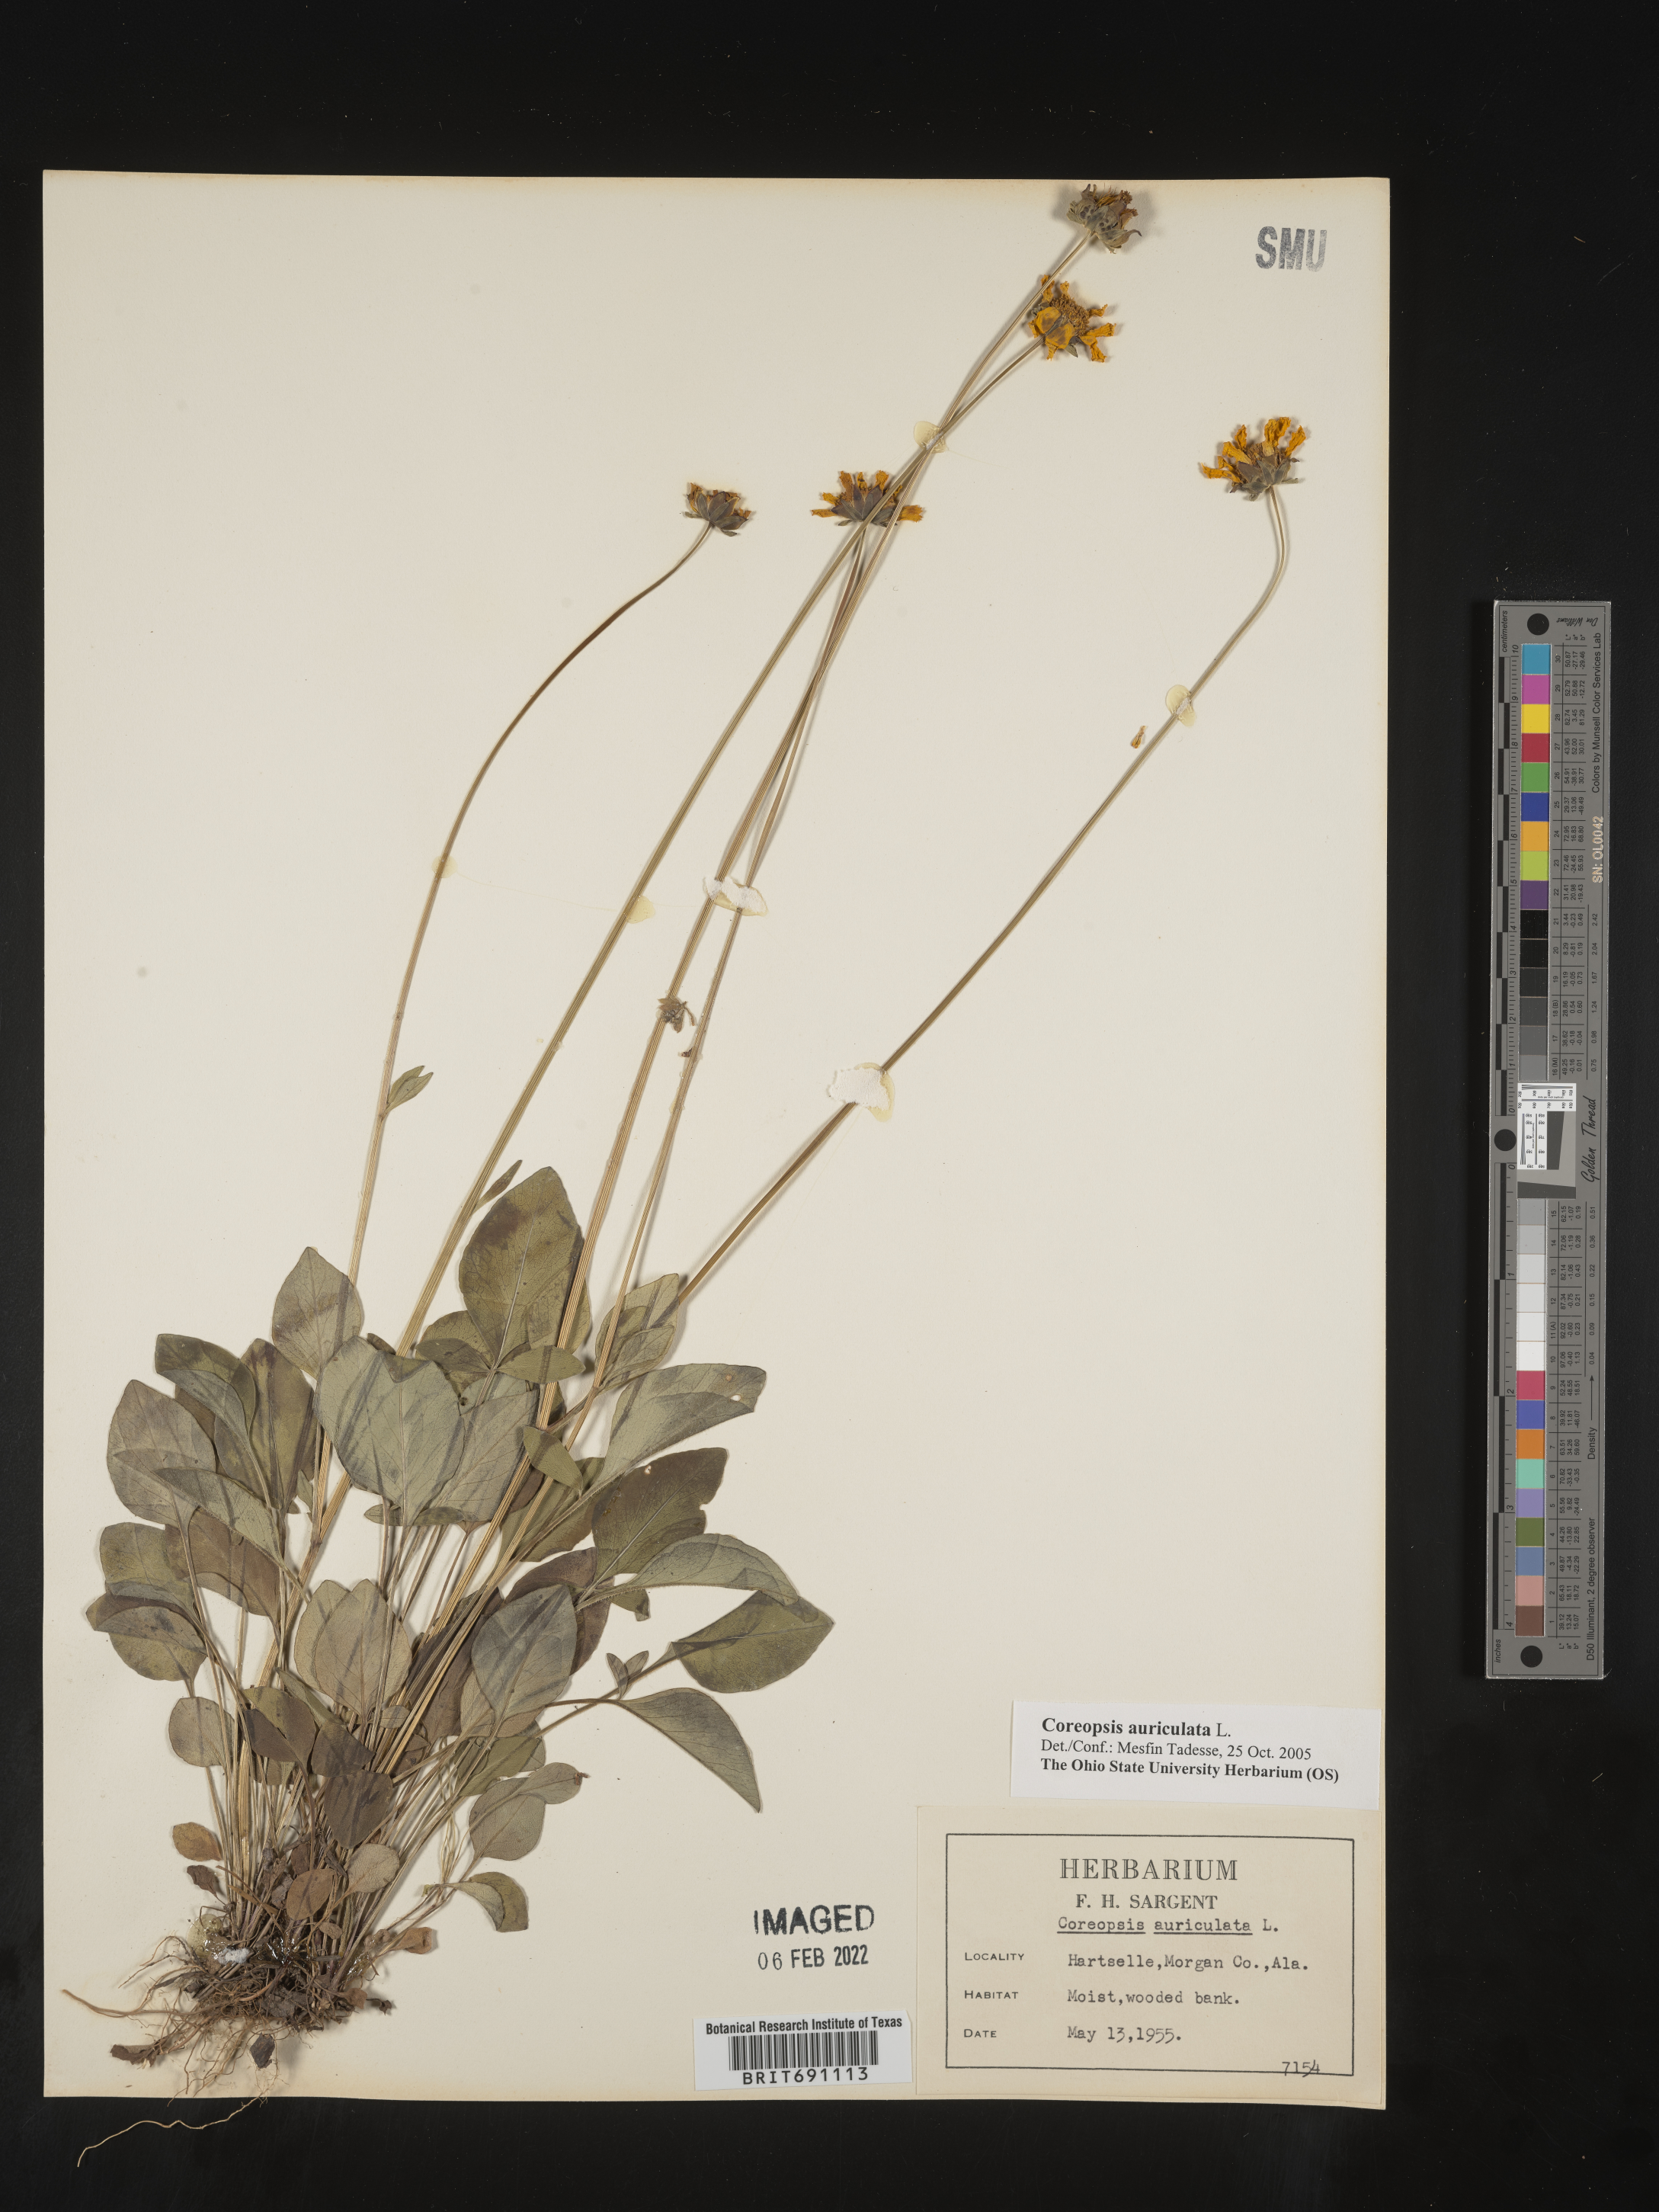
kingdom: Plantae
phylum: Tracheophyta
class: Magnoliopsida
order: Asterales
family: Asteraceae
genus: Coreopsis
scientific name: Coreopsis auriculata
